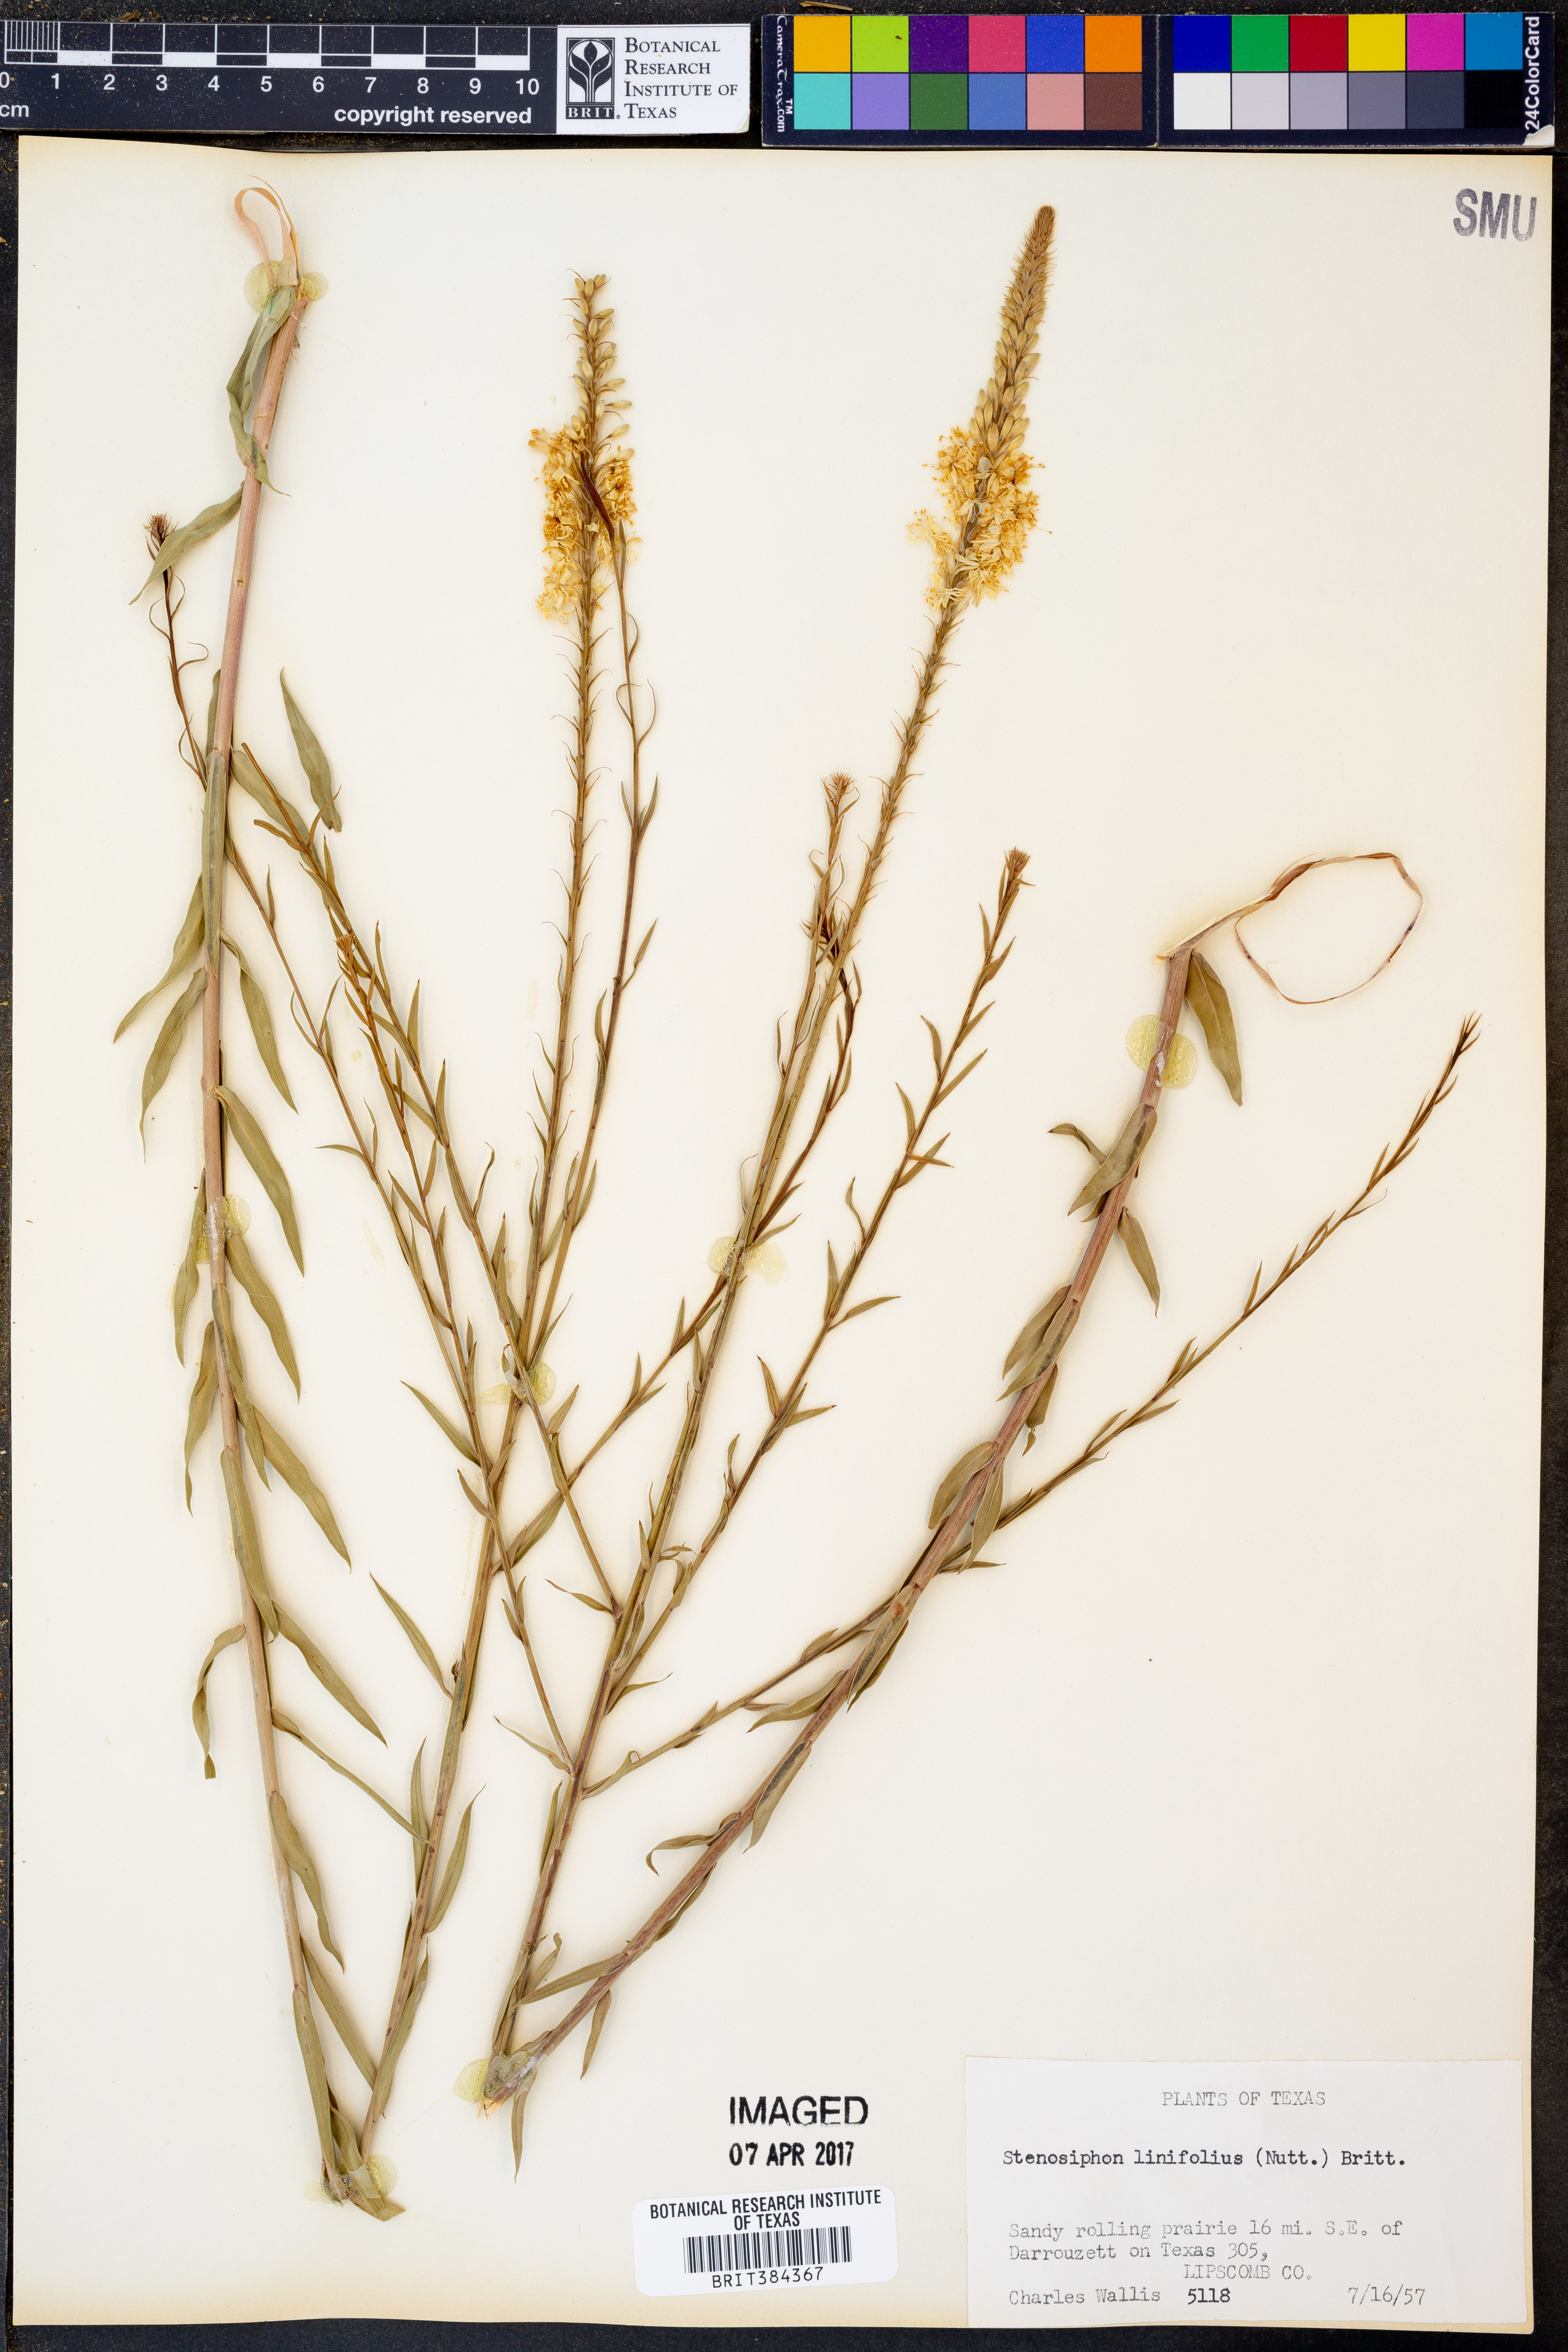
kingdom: Plantae
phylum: Tracheophyta
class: Magnoliopsida
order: Myrtales
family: Onagraceae
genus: Oenothera
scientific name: Oenothera glaucifolia
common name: False gaura
